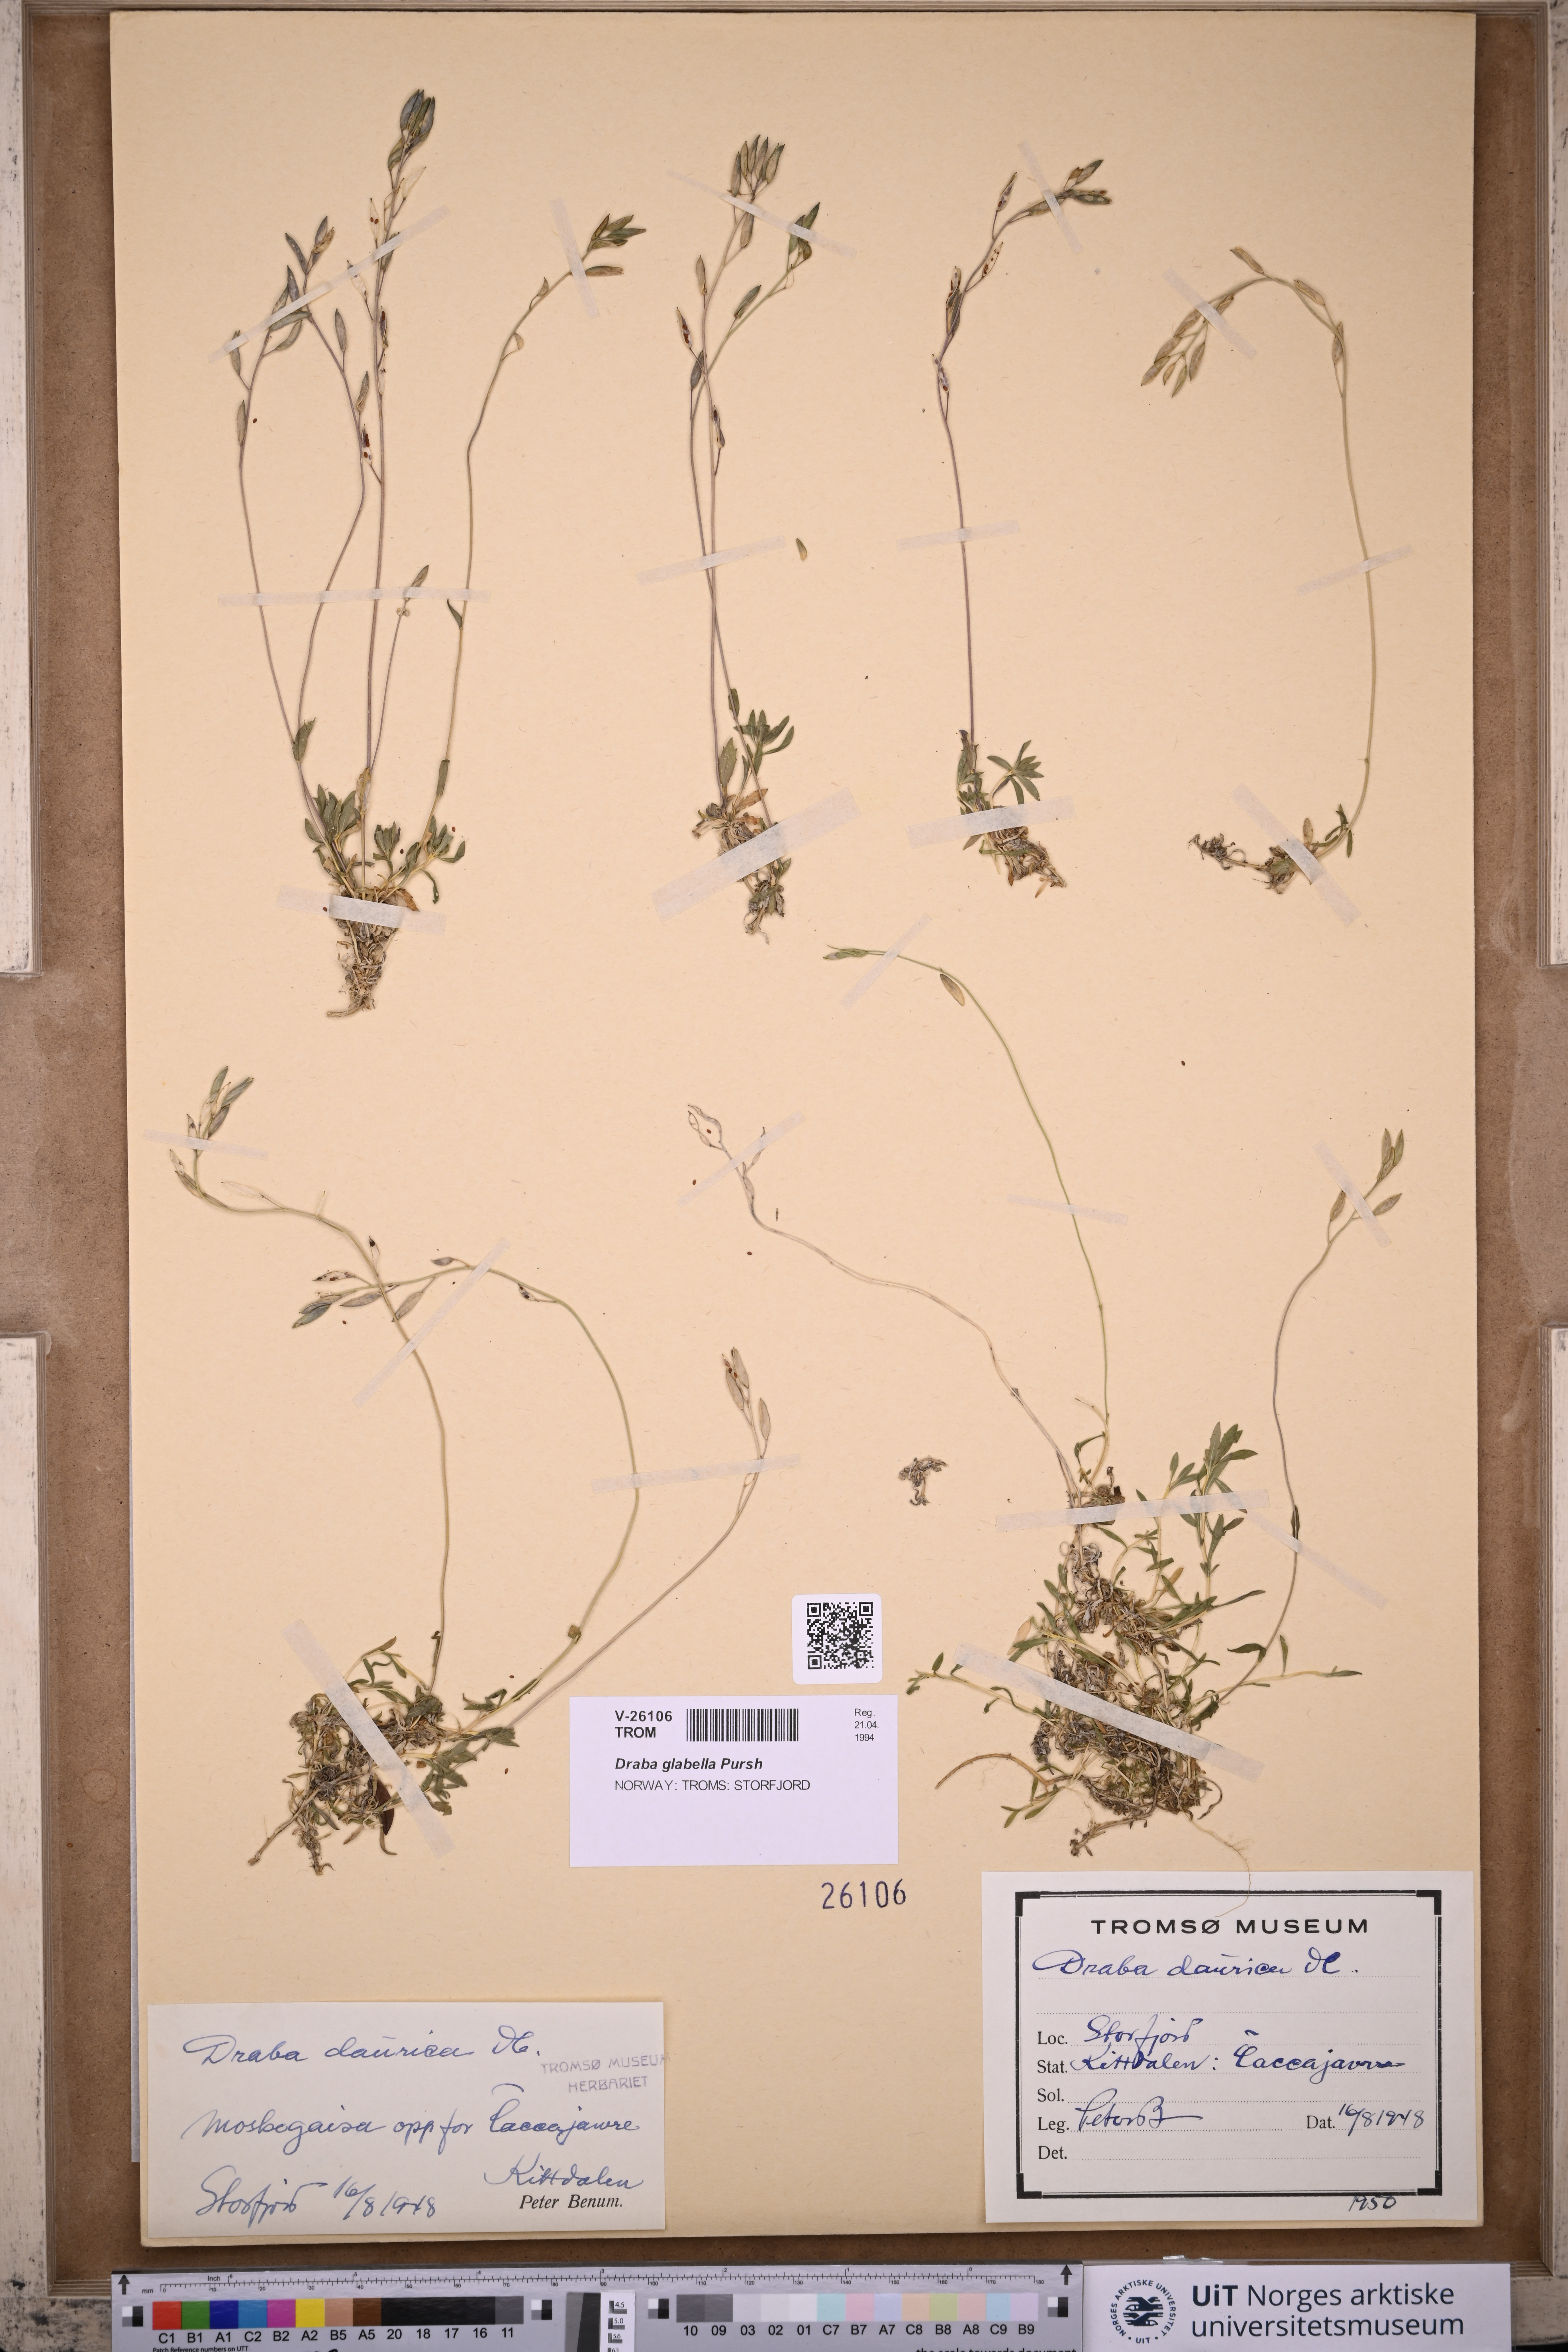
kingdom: Plantae
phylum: Tracheophyta
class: Magnoliopsida
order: Brassicales
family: Brassicaceae
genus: Draba
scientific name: Draba glabella
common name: Glaucous draba
